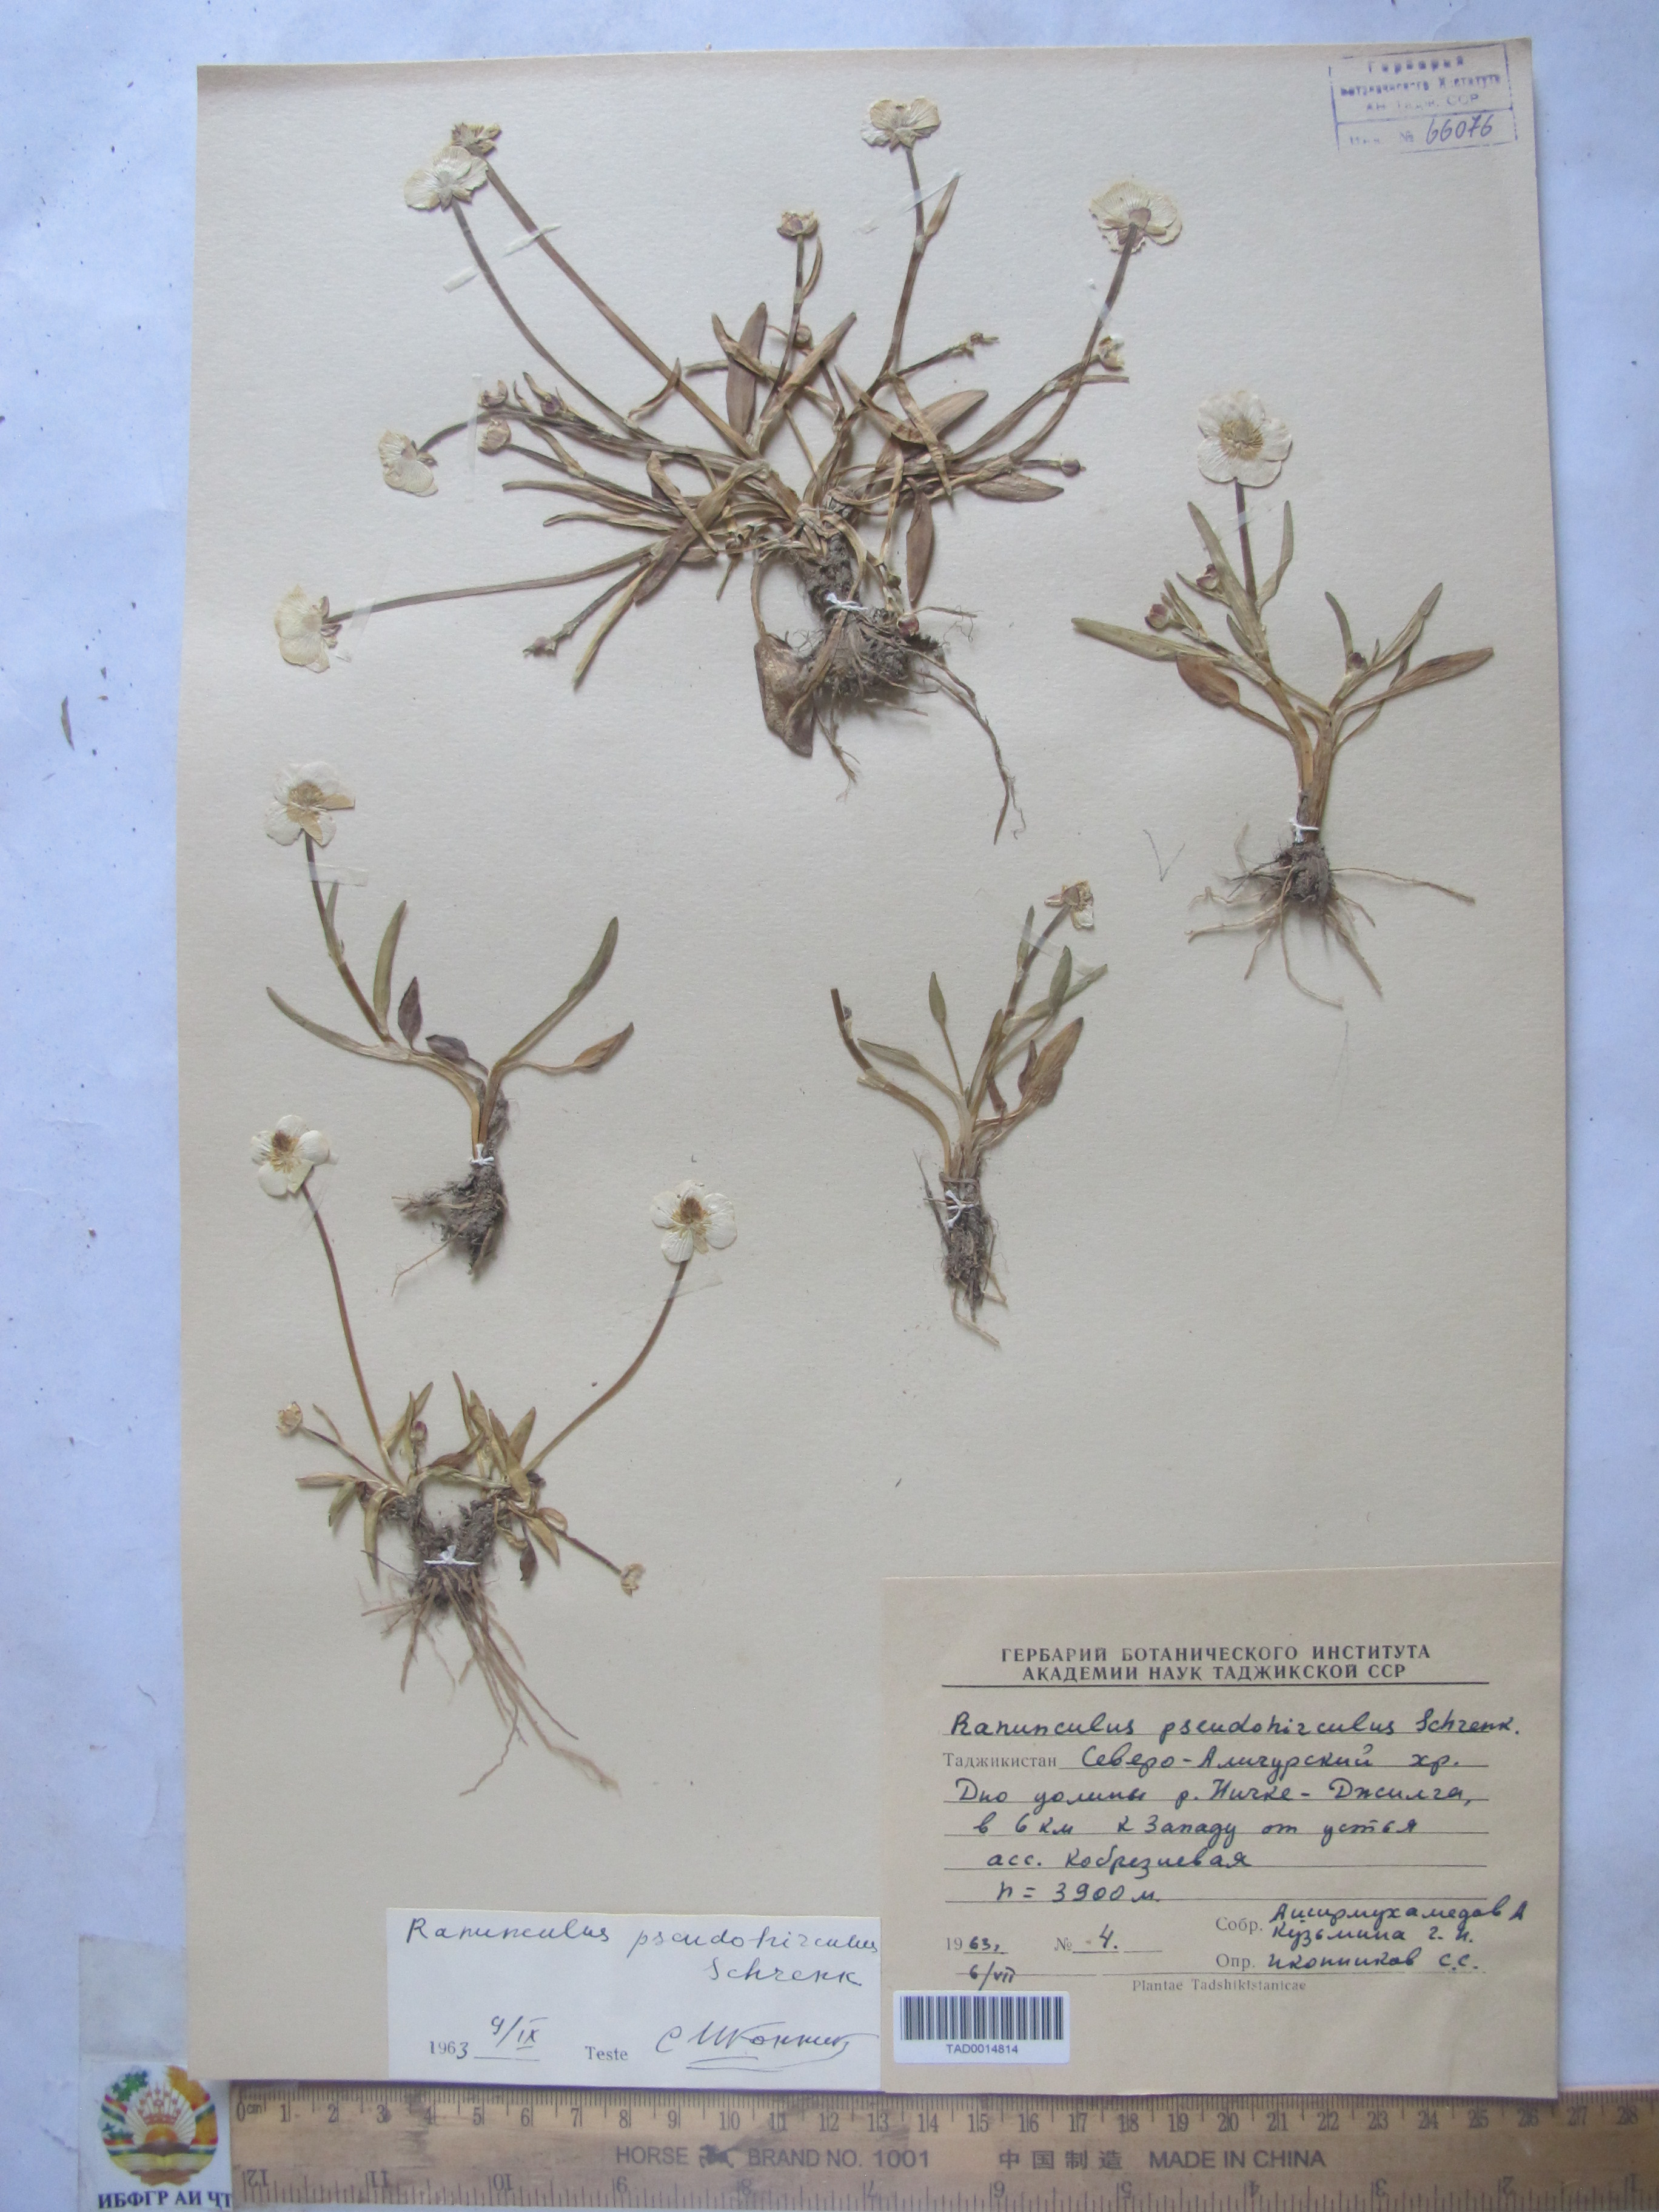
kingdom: Plantae
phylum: Tracheophyta
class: Magnoliopsida
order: Ranunculales
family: Ranunculaceae
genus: Ranunculus
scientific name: Ranunculus pseudohirculus
